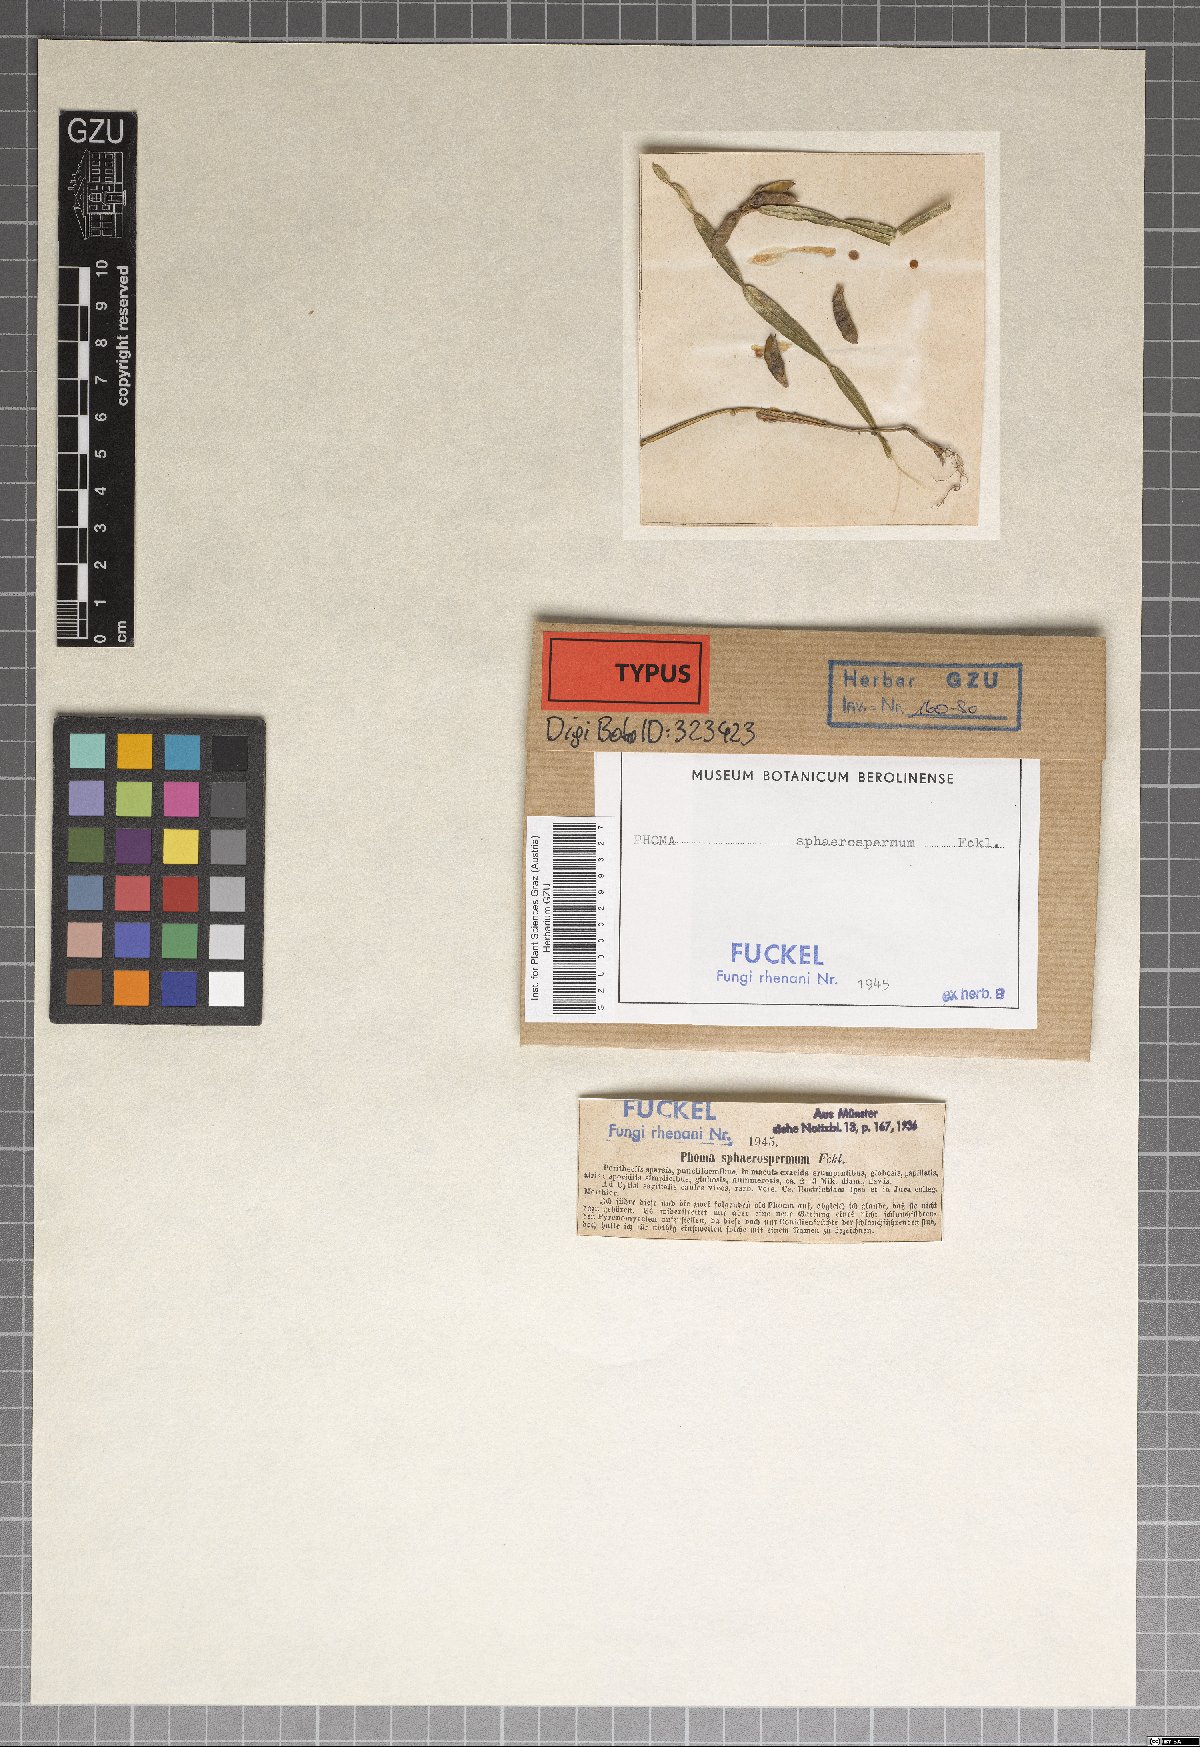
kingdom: Fungi
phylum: Ascomycota
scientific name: Ascomycota
